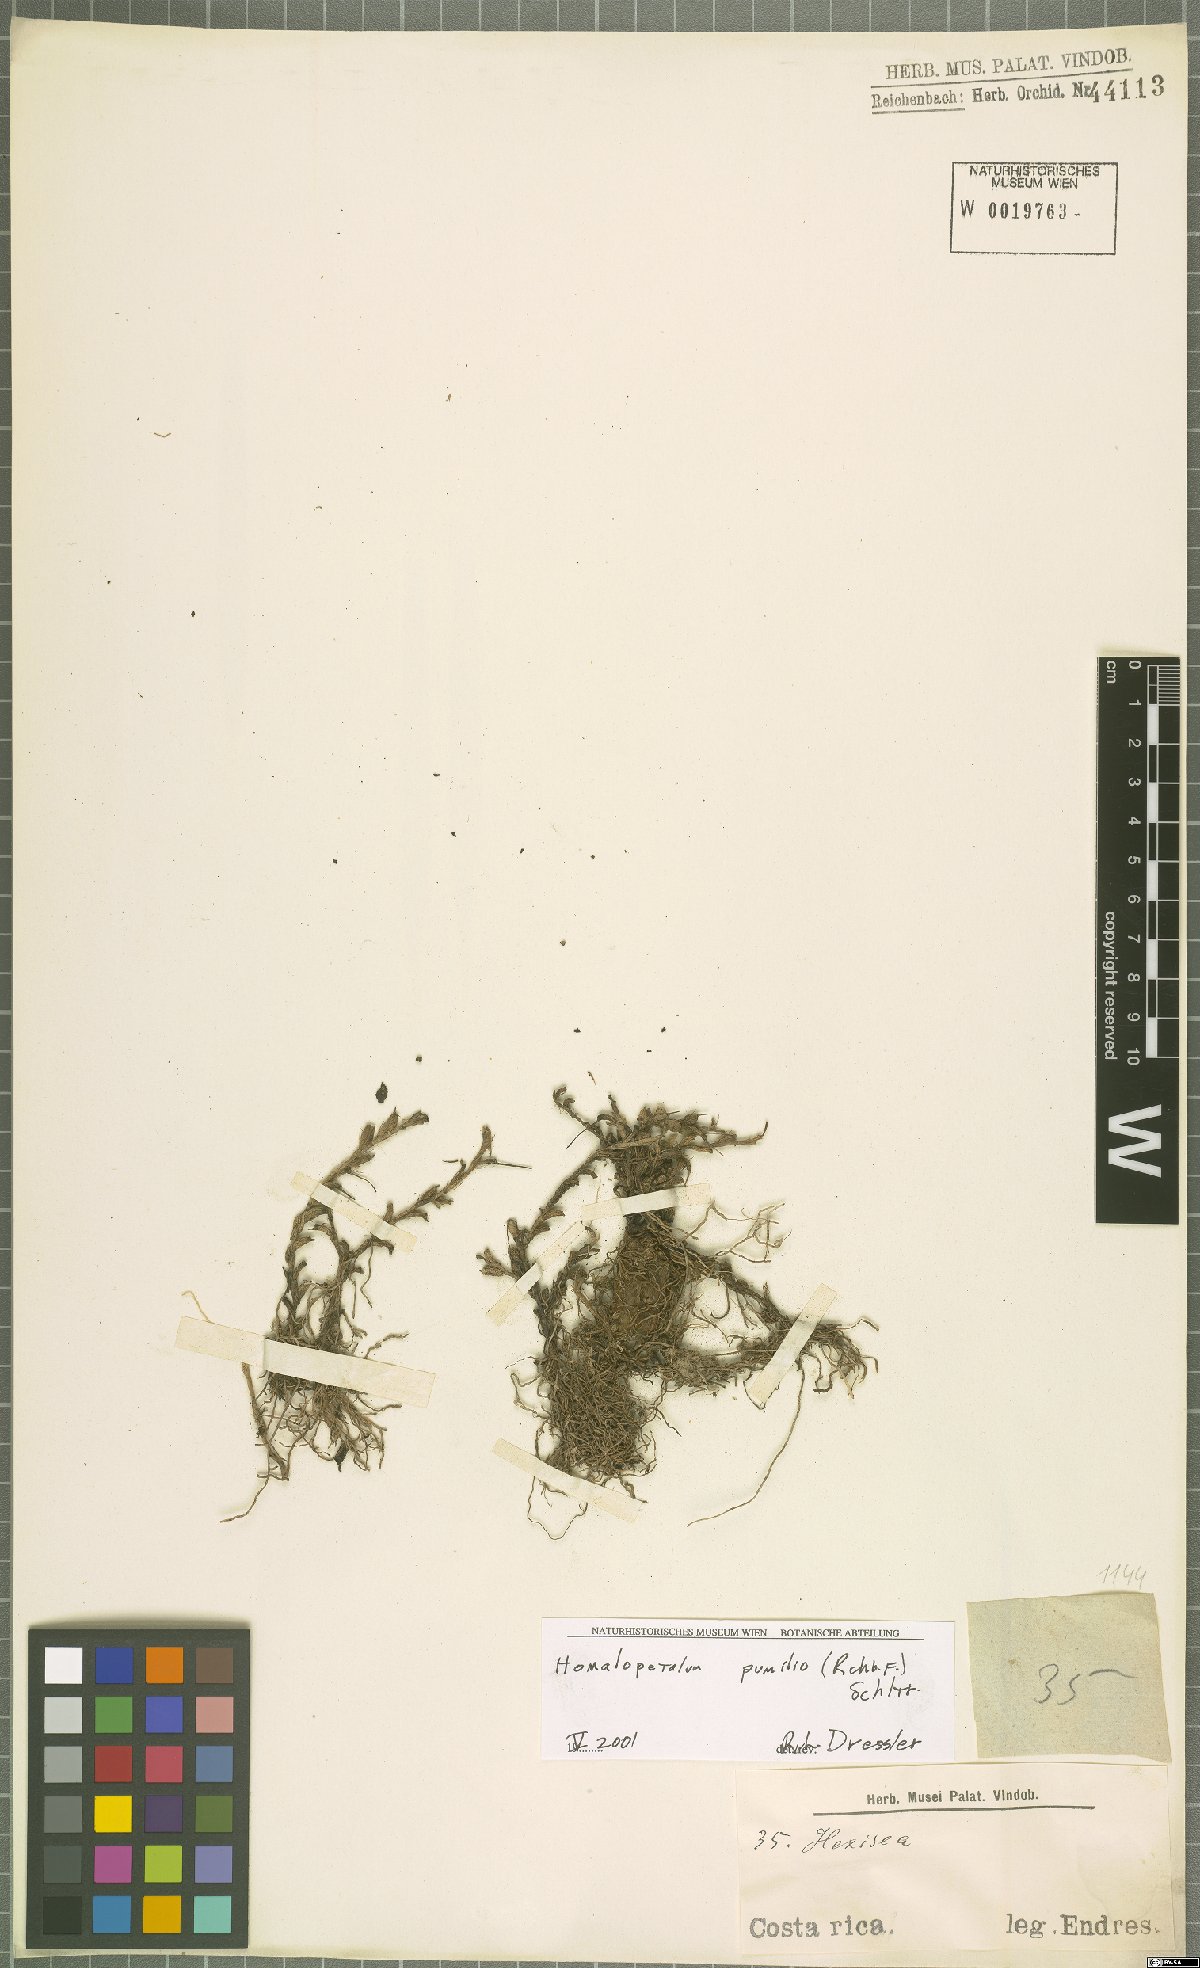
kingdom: Plantae
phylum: Tracheophyta
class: Liliopsida
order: Asparagales
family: Orchidaceae
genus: Homalopetalum
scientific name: Homalopetalum pumilio
